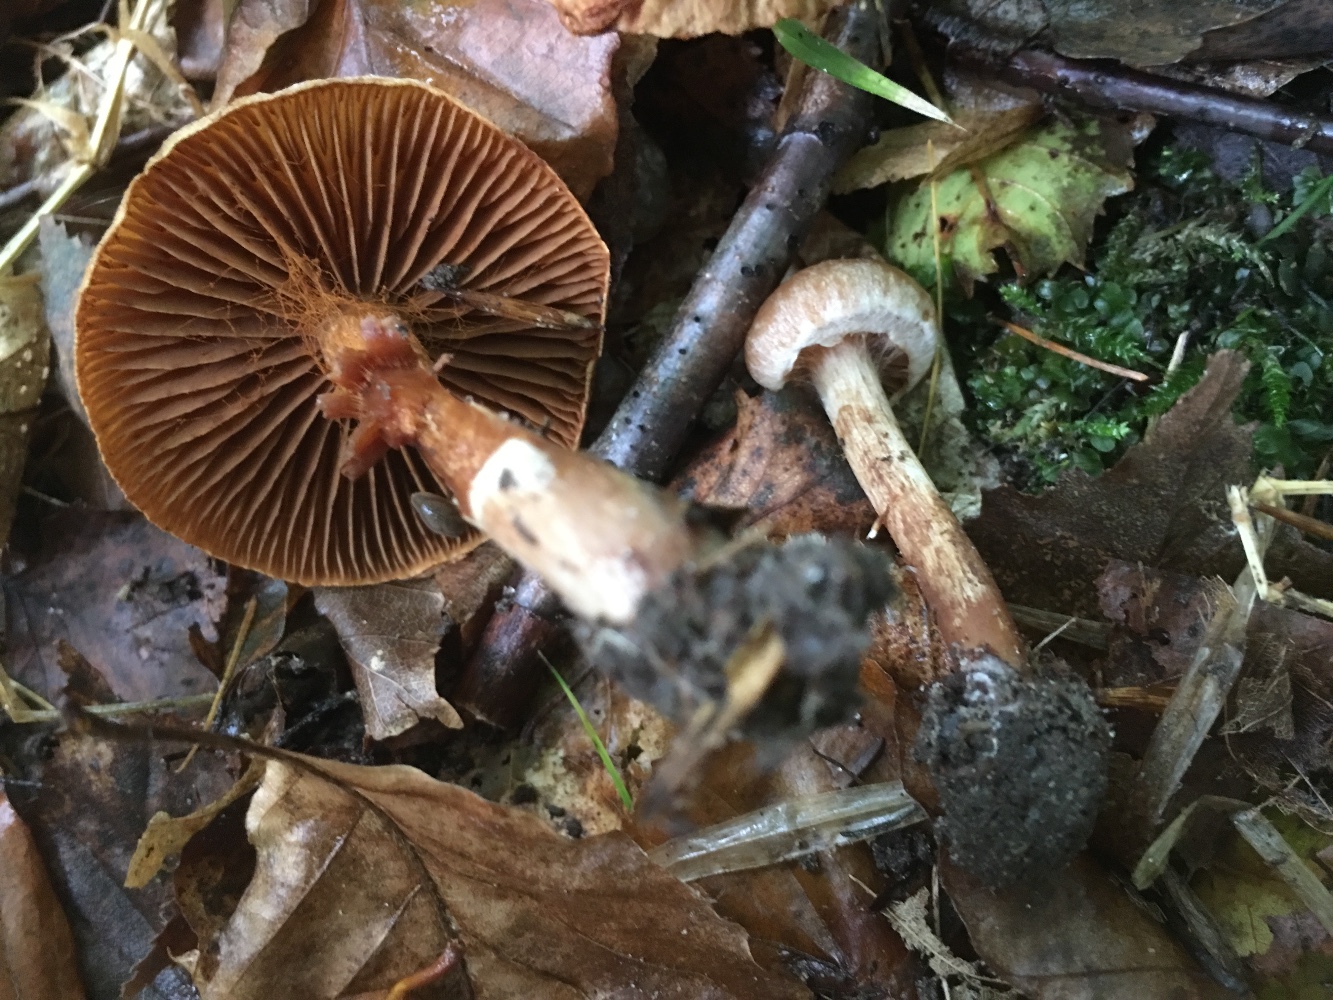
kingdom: Fungi
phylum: Basidiomycota
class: Agaricomycetes
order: Agaricales
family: Cortinariaceae
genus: Cortinarius
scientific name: Cortinarius
